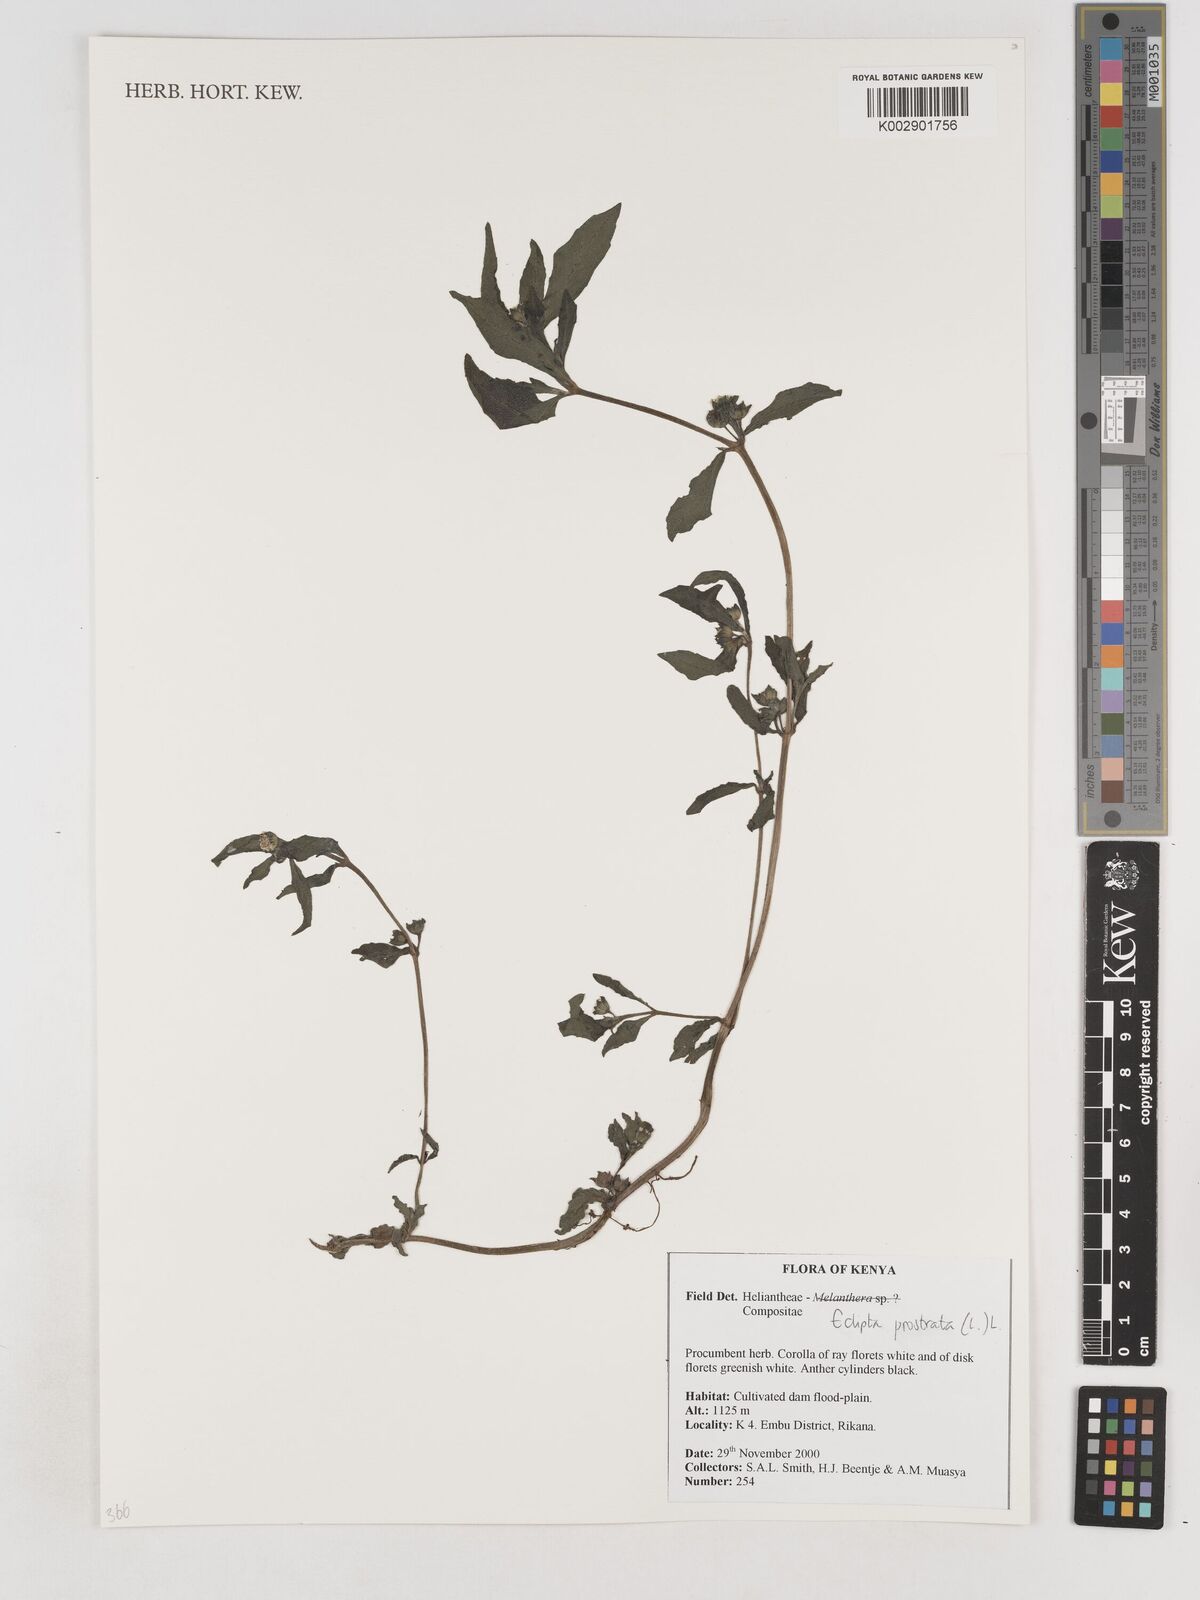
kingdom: Plantae
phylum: Tracheophyta
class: Magnoliopsida
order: Asterales
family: Asteraceae
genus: Eclipta
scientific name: Eclipta prostrata
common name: False daisy
